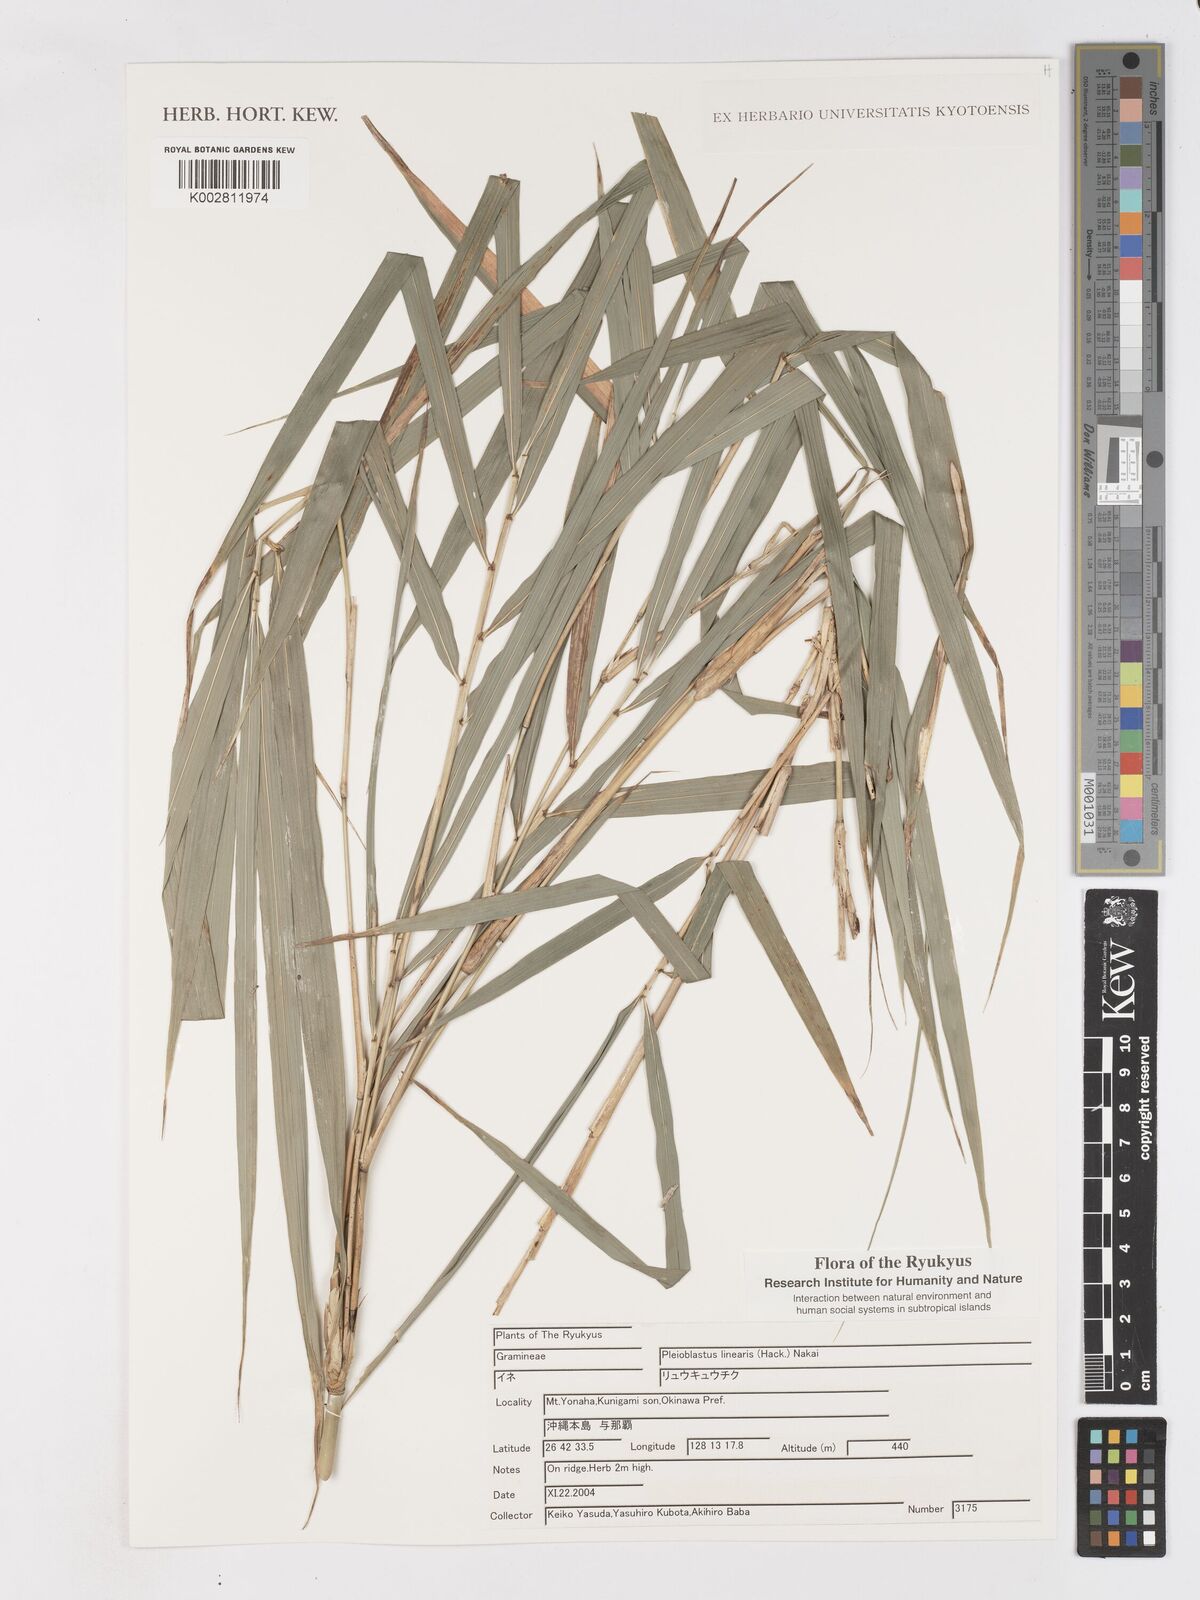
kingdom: Plantae
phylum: Tracheophyta
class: Liliopsida
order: Poales
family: Poaceae
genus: Pleioblastus
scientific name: Pleioblastus linearis
